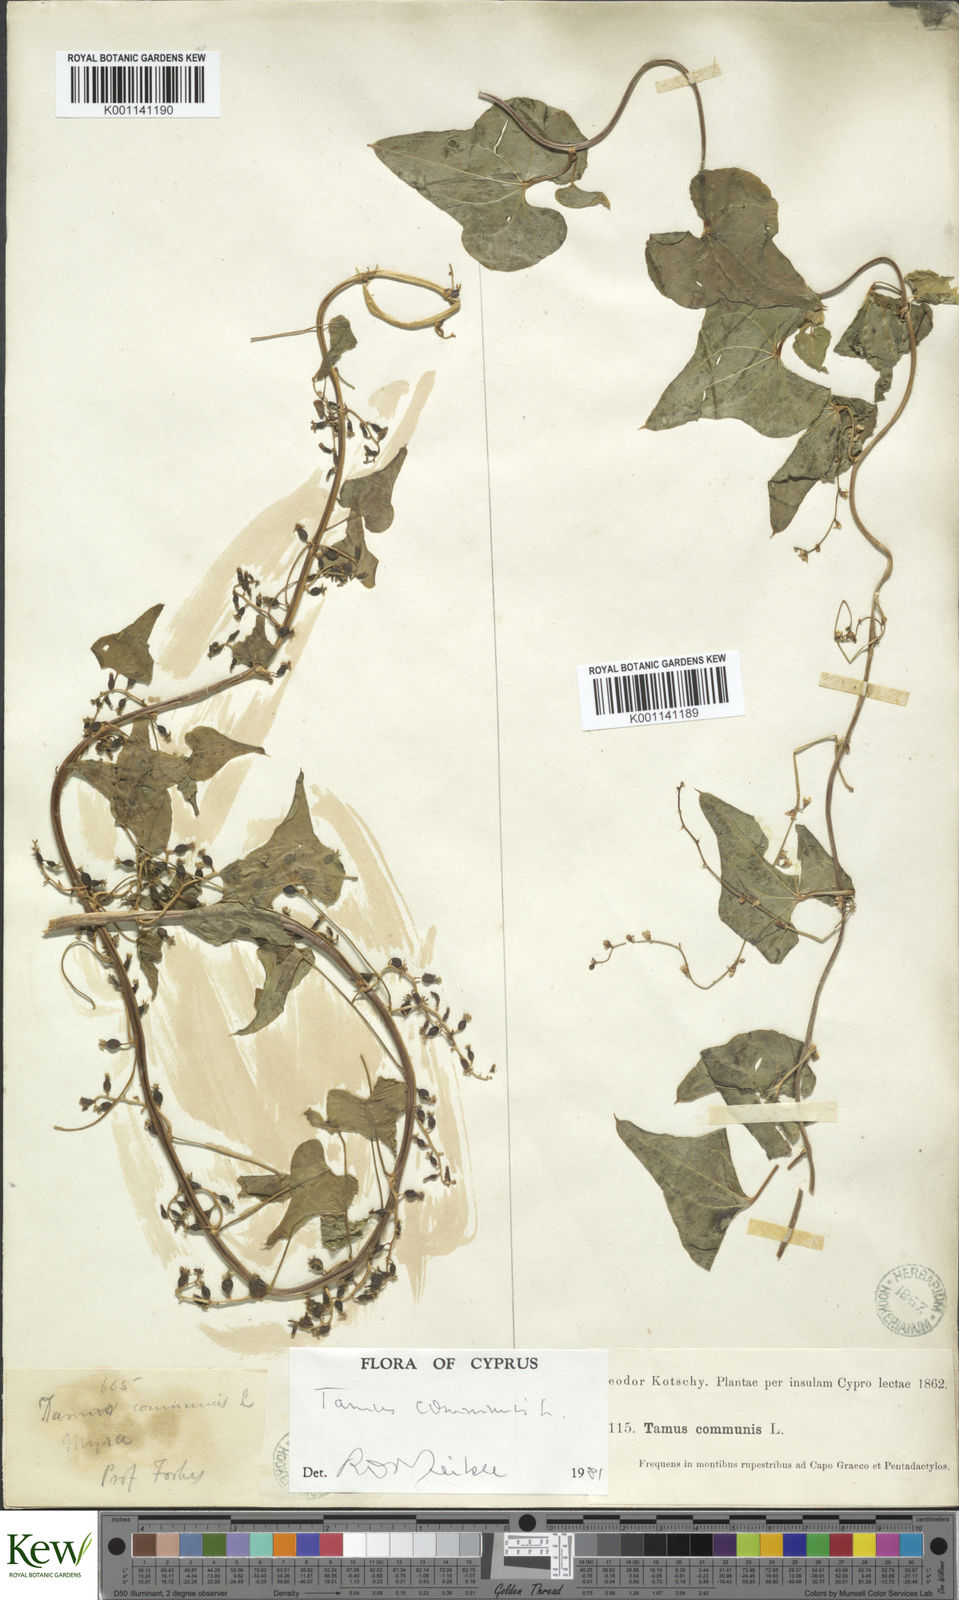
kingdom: Plantae
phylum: Tracheophyta
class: Liliopsida
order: Dioscoreales
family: Dioscoreaceae
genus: Dioscorea
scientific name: Dioscorea communis
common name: Black-bindweed
